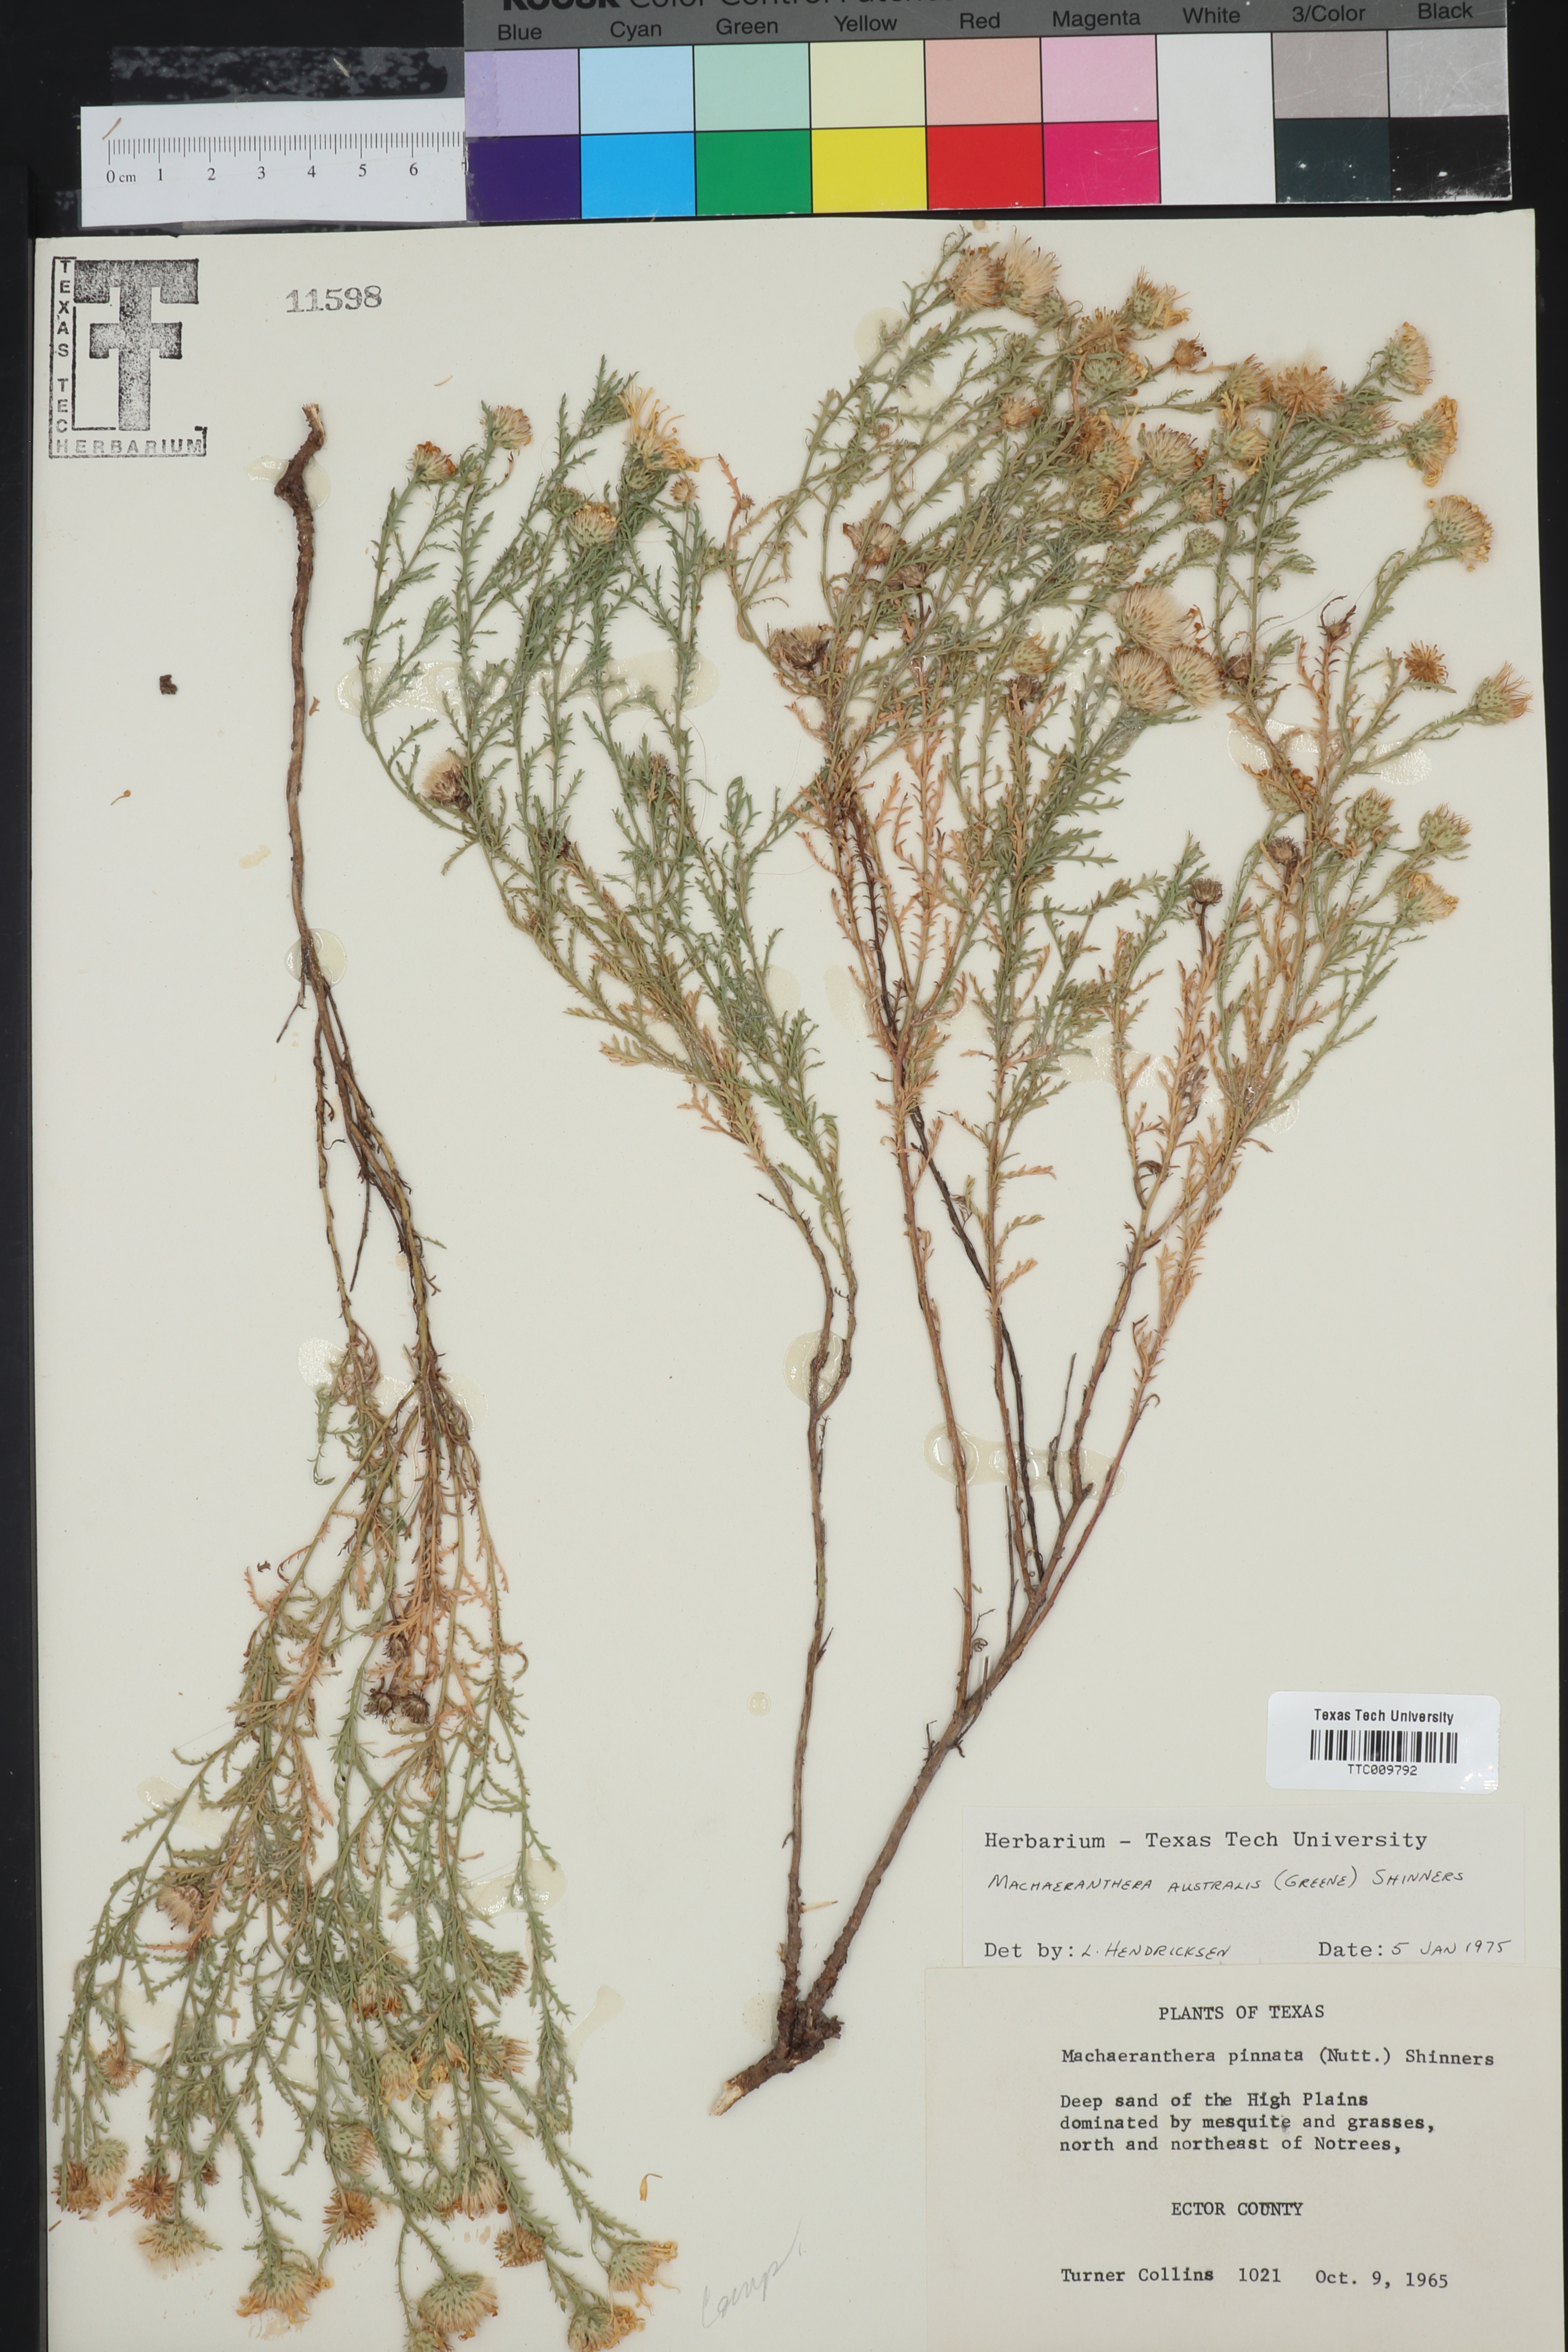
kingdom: Plantae
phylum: Tracheophyta
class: Magnoliopsida
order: Asterales
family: Asteraceae
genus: Xanthisma
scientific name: Xanthisma spinulosum
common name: Spiny goldenweed
